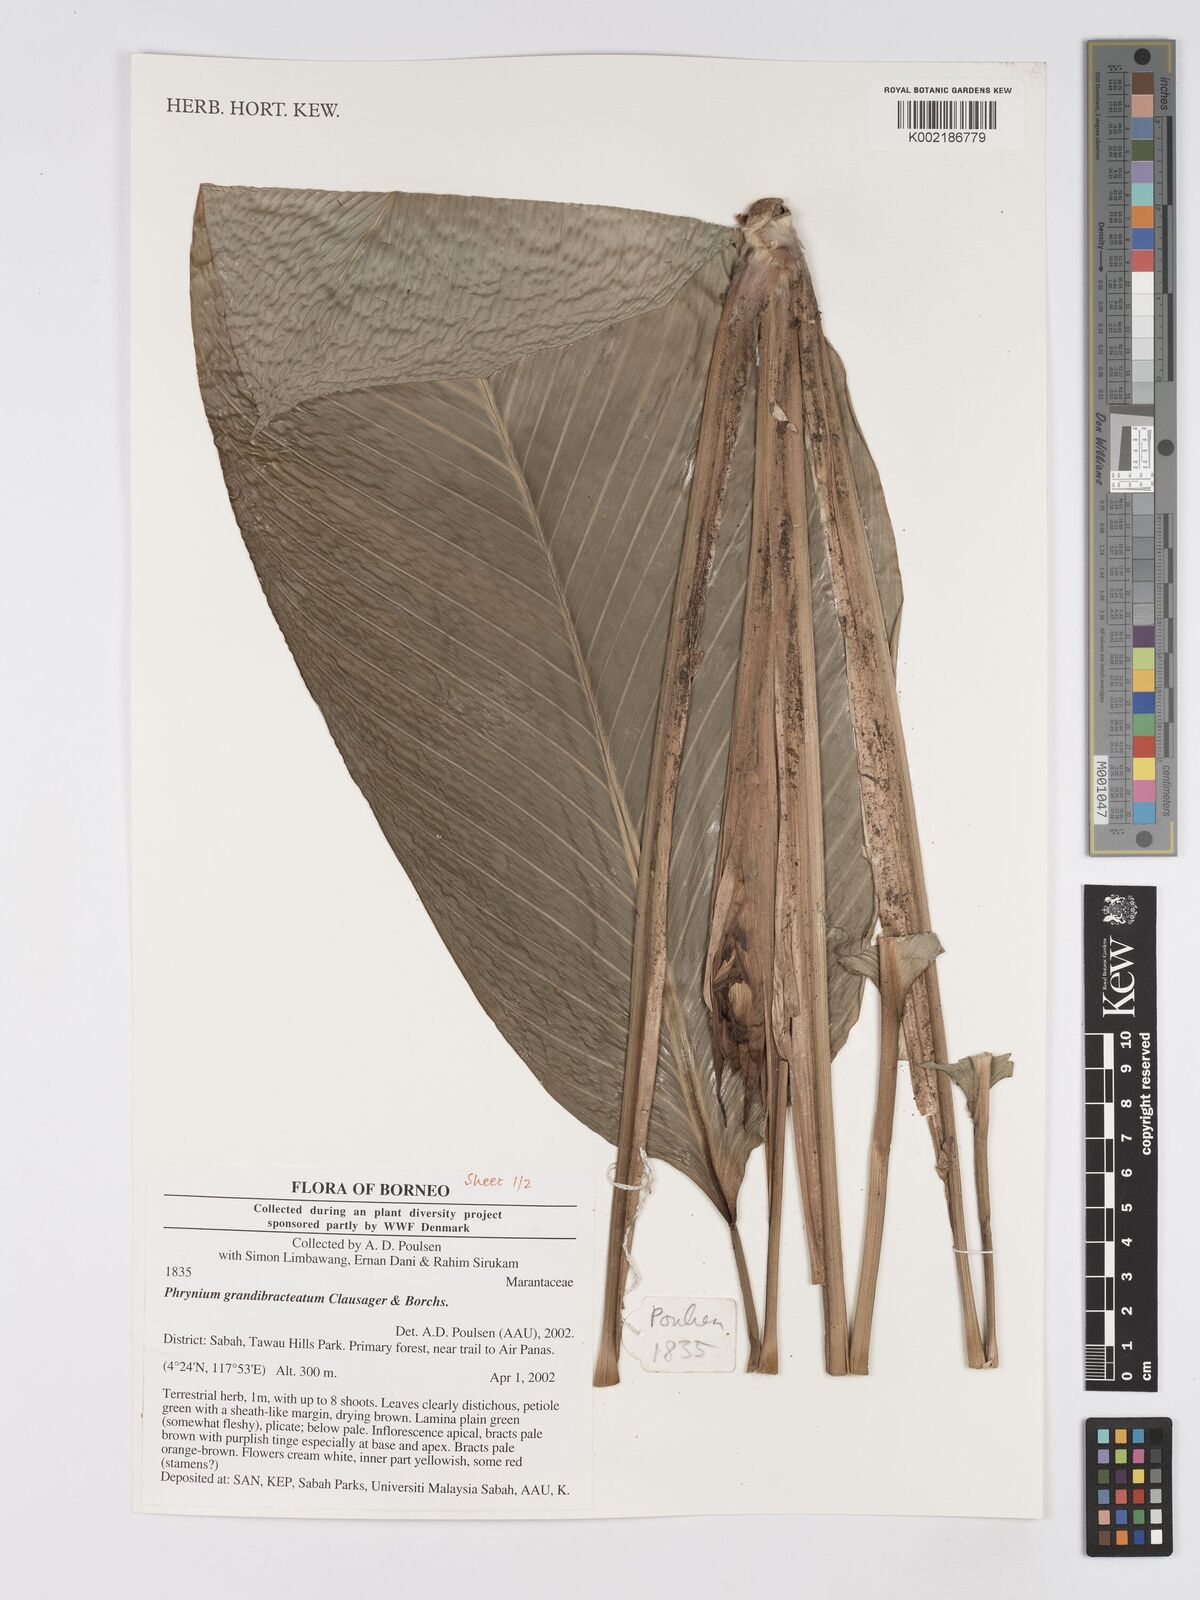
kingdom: Plantae
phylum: Tracheophyta
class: Liliopsida
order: Zingiberales
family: Marantaceae
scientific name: Marantaceae
